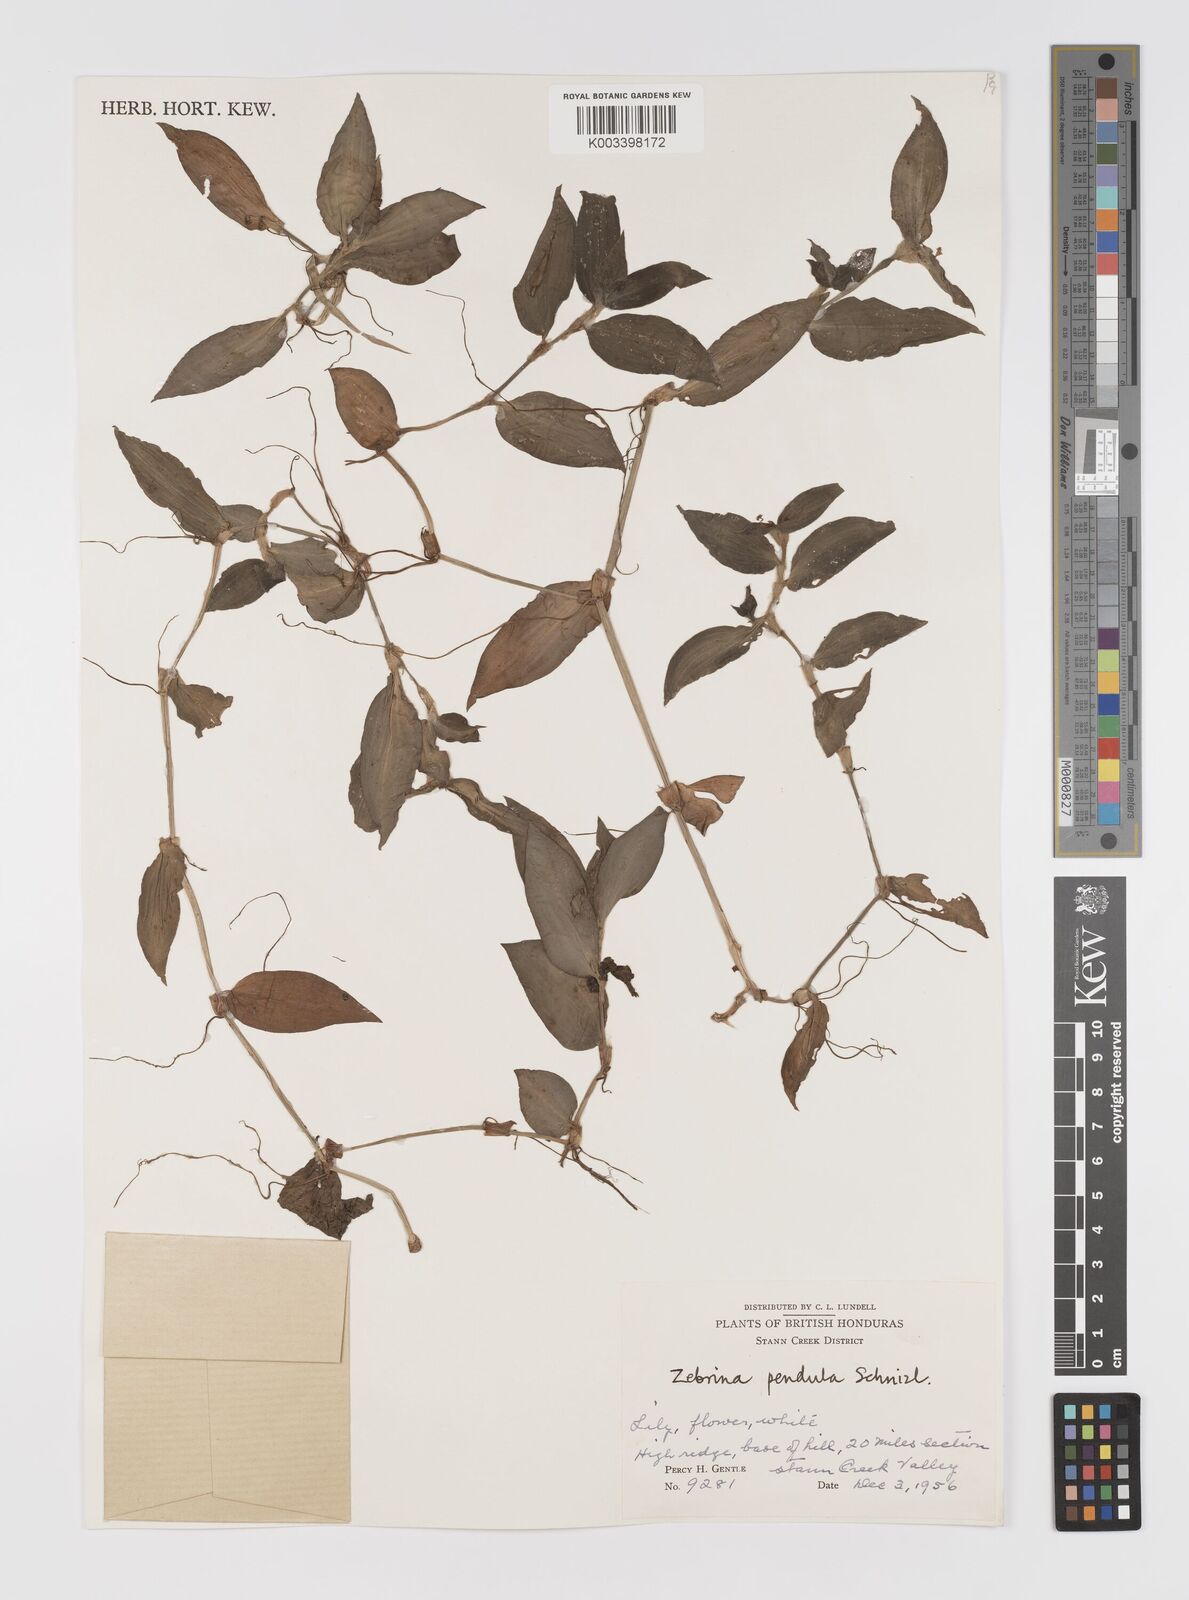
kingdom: Plantae
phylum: Tracheophyta
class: Liliopsida
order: Commelinales
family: Commelinaceae
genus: Tradescantia
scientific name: Tradescantia zebrina
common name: Inchplant
